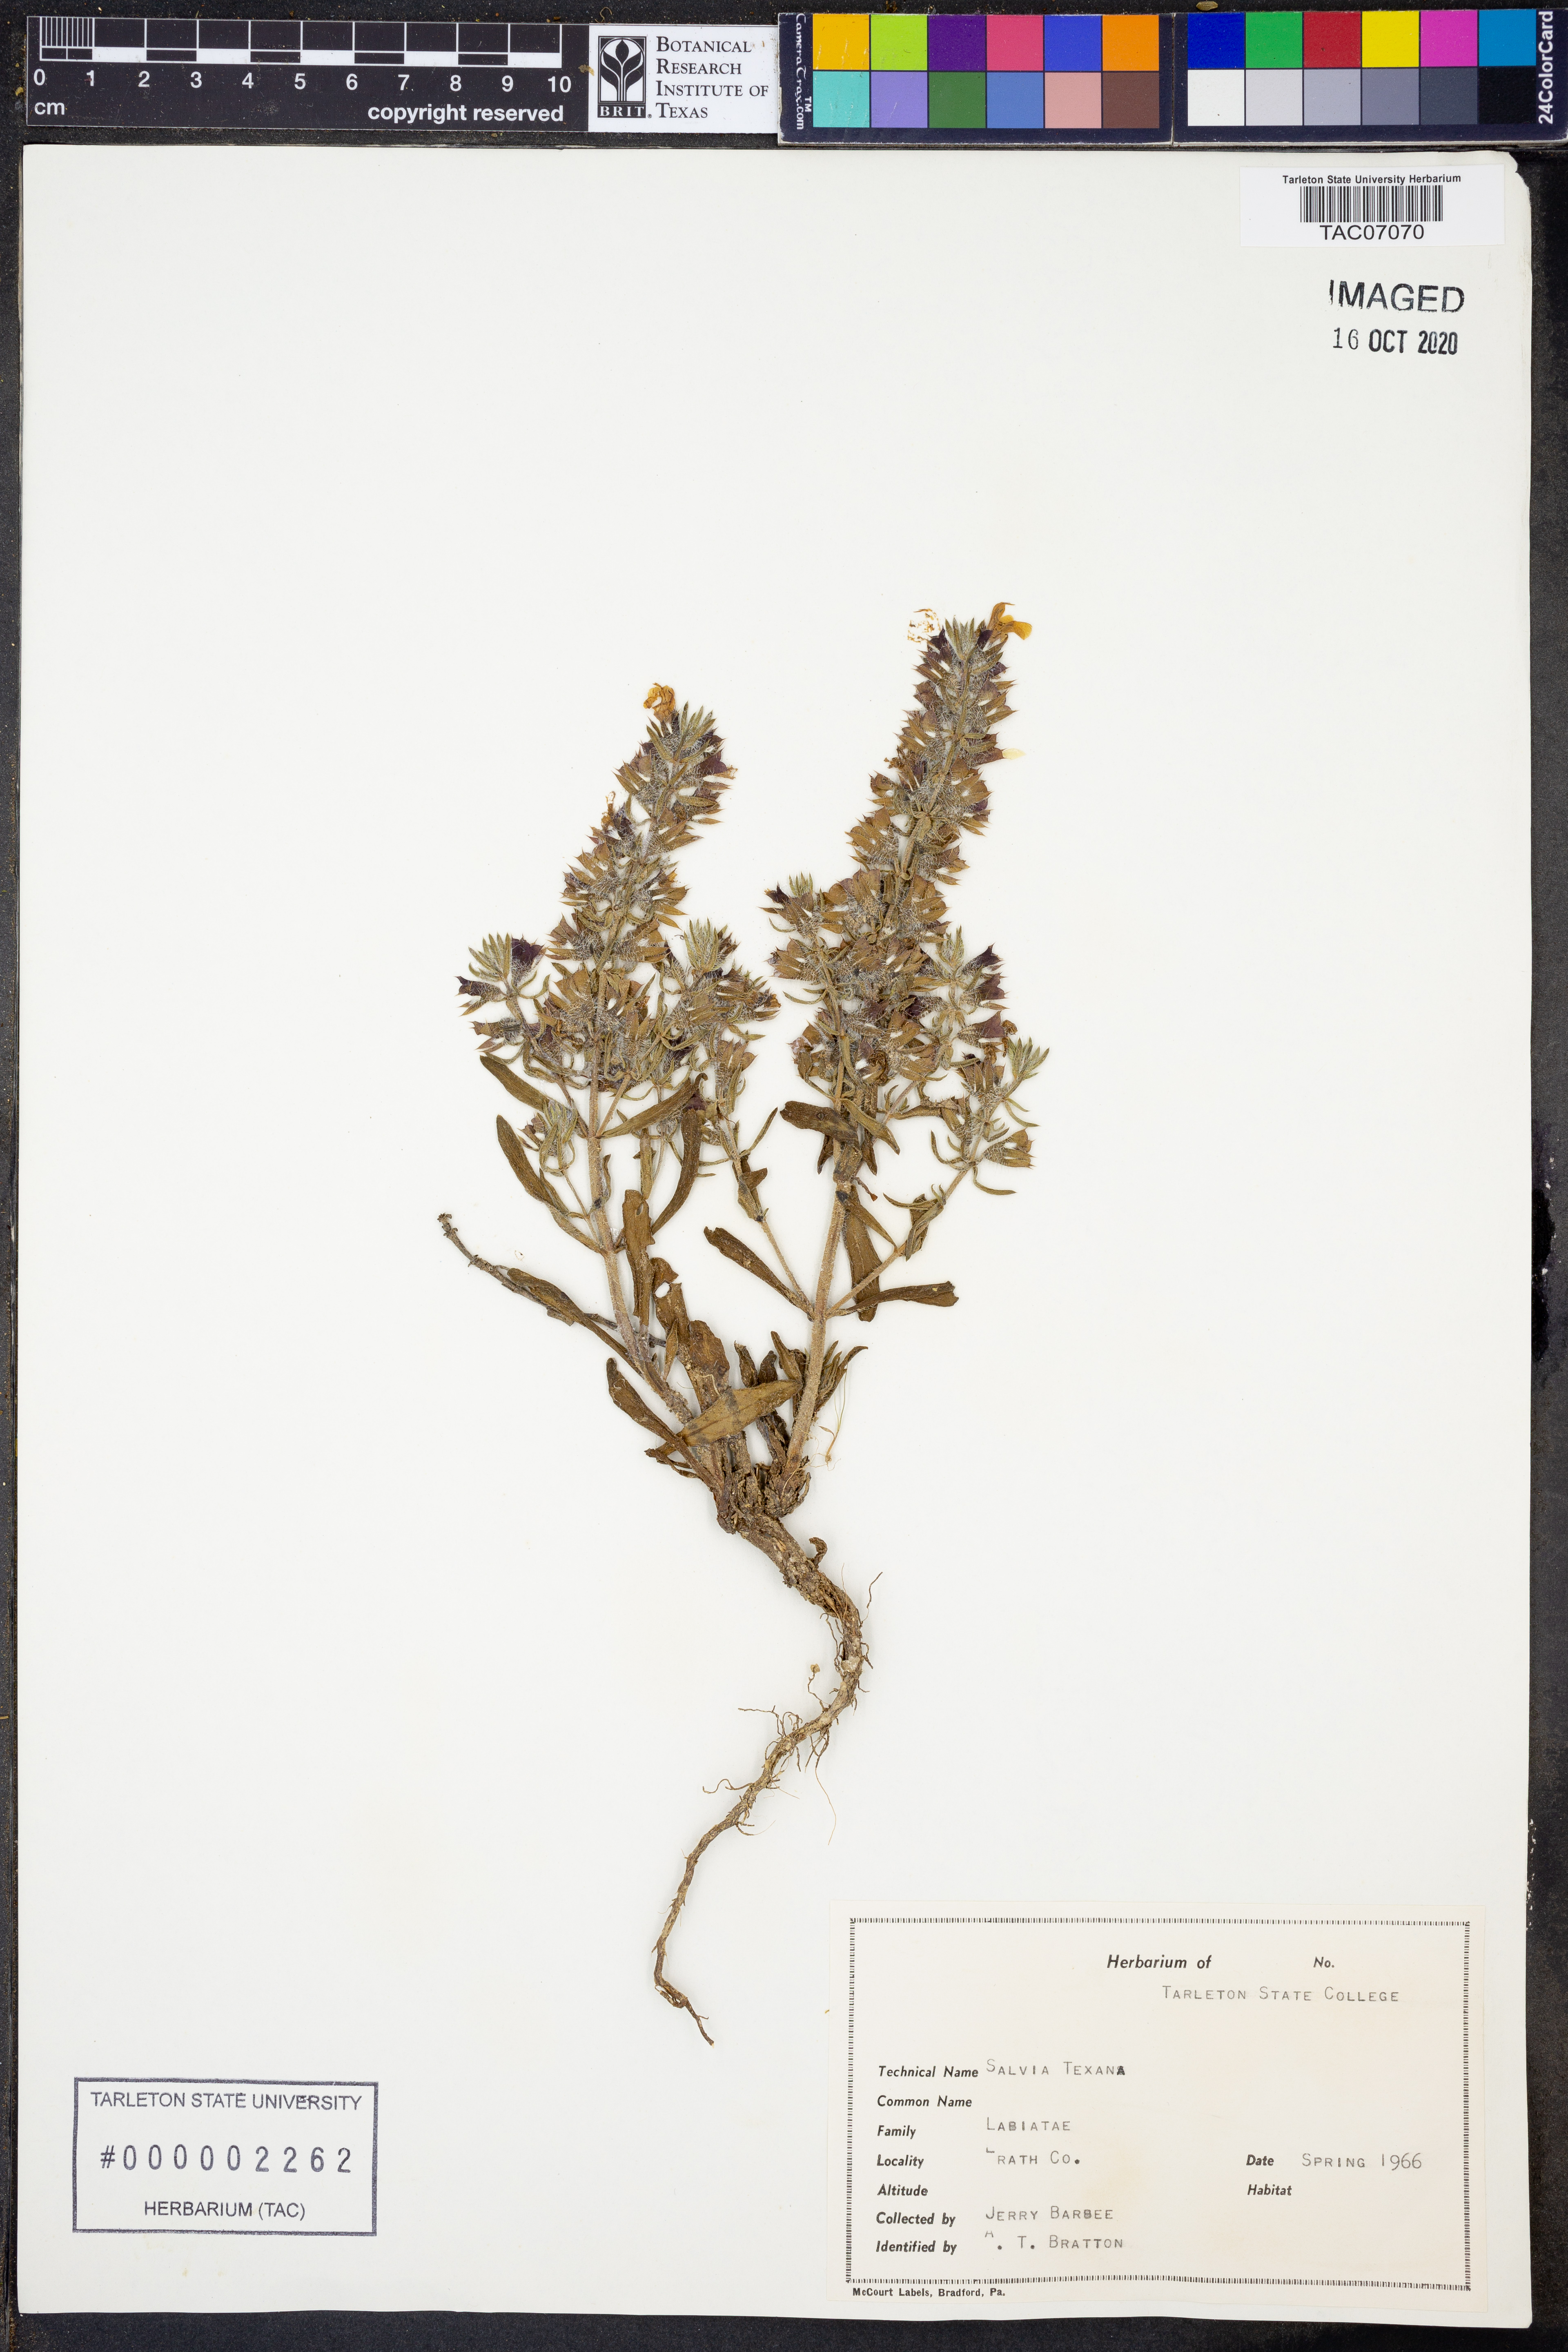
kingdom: Plantae
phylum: Tracheophyta
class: Magnoliopsida
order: Lamiales
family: Lamiaceae
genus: Salvia
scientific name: Salvia texana
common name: Texas sage
